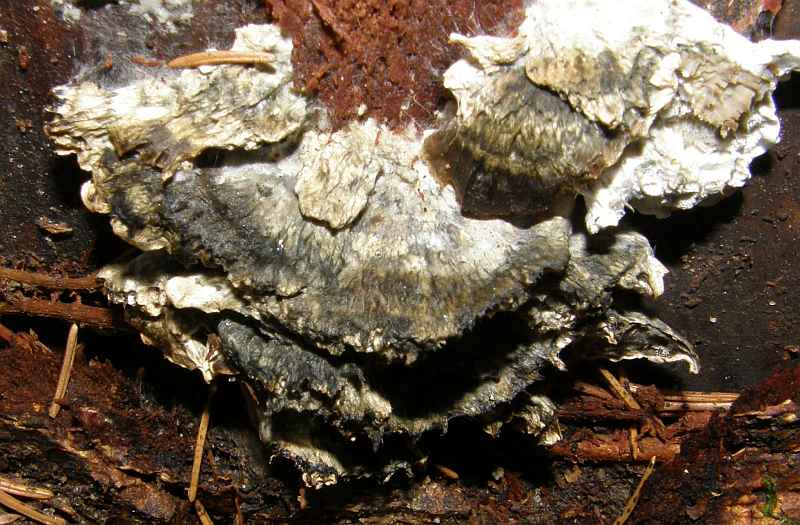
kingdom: Fungi
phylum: Basidiomycota
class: Agaricomycetes
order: Polyporales
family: Polyporaceae
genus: Cyanosporus
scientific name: Cyanosporus caesius
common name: blålig kødporesvamp
